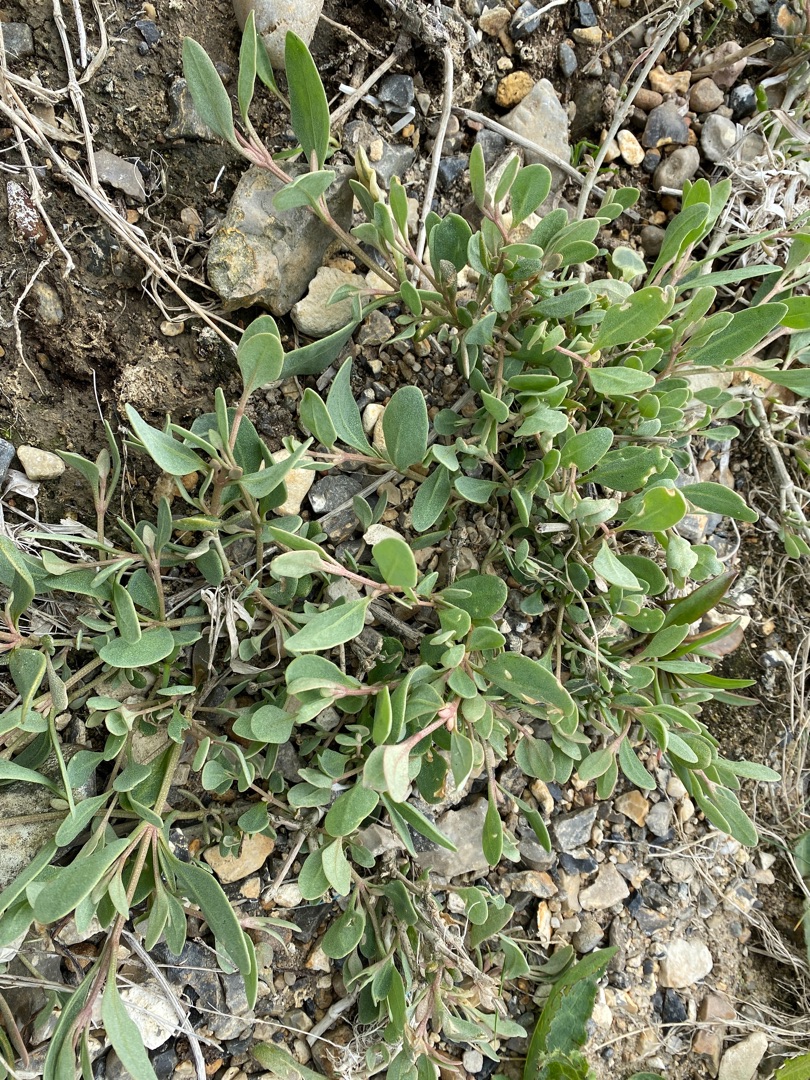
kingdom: Plantae
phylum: Tracheophyta
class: Magnoliopsida
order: Caryophyllales
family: Amaranthaceae
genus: Halimione
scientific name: Halimione portulacoides
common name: Stilkløs kilebæger
